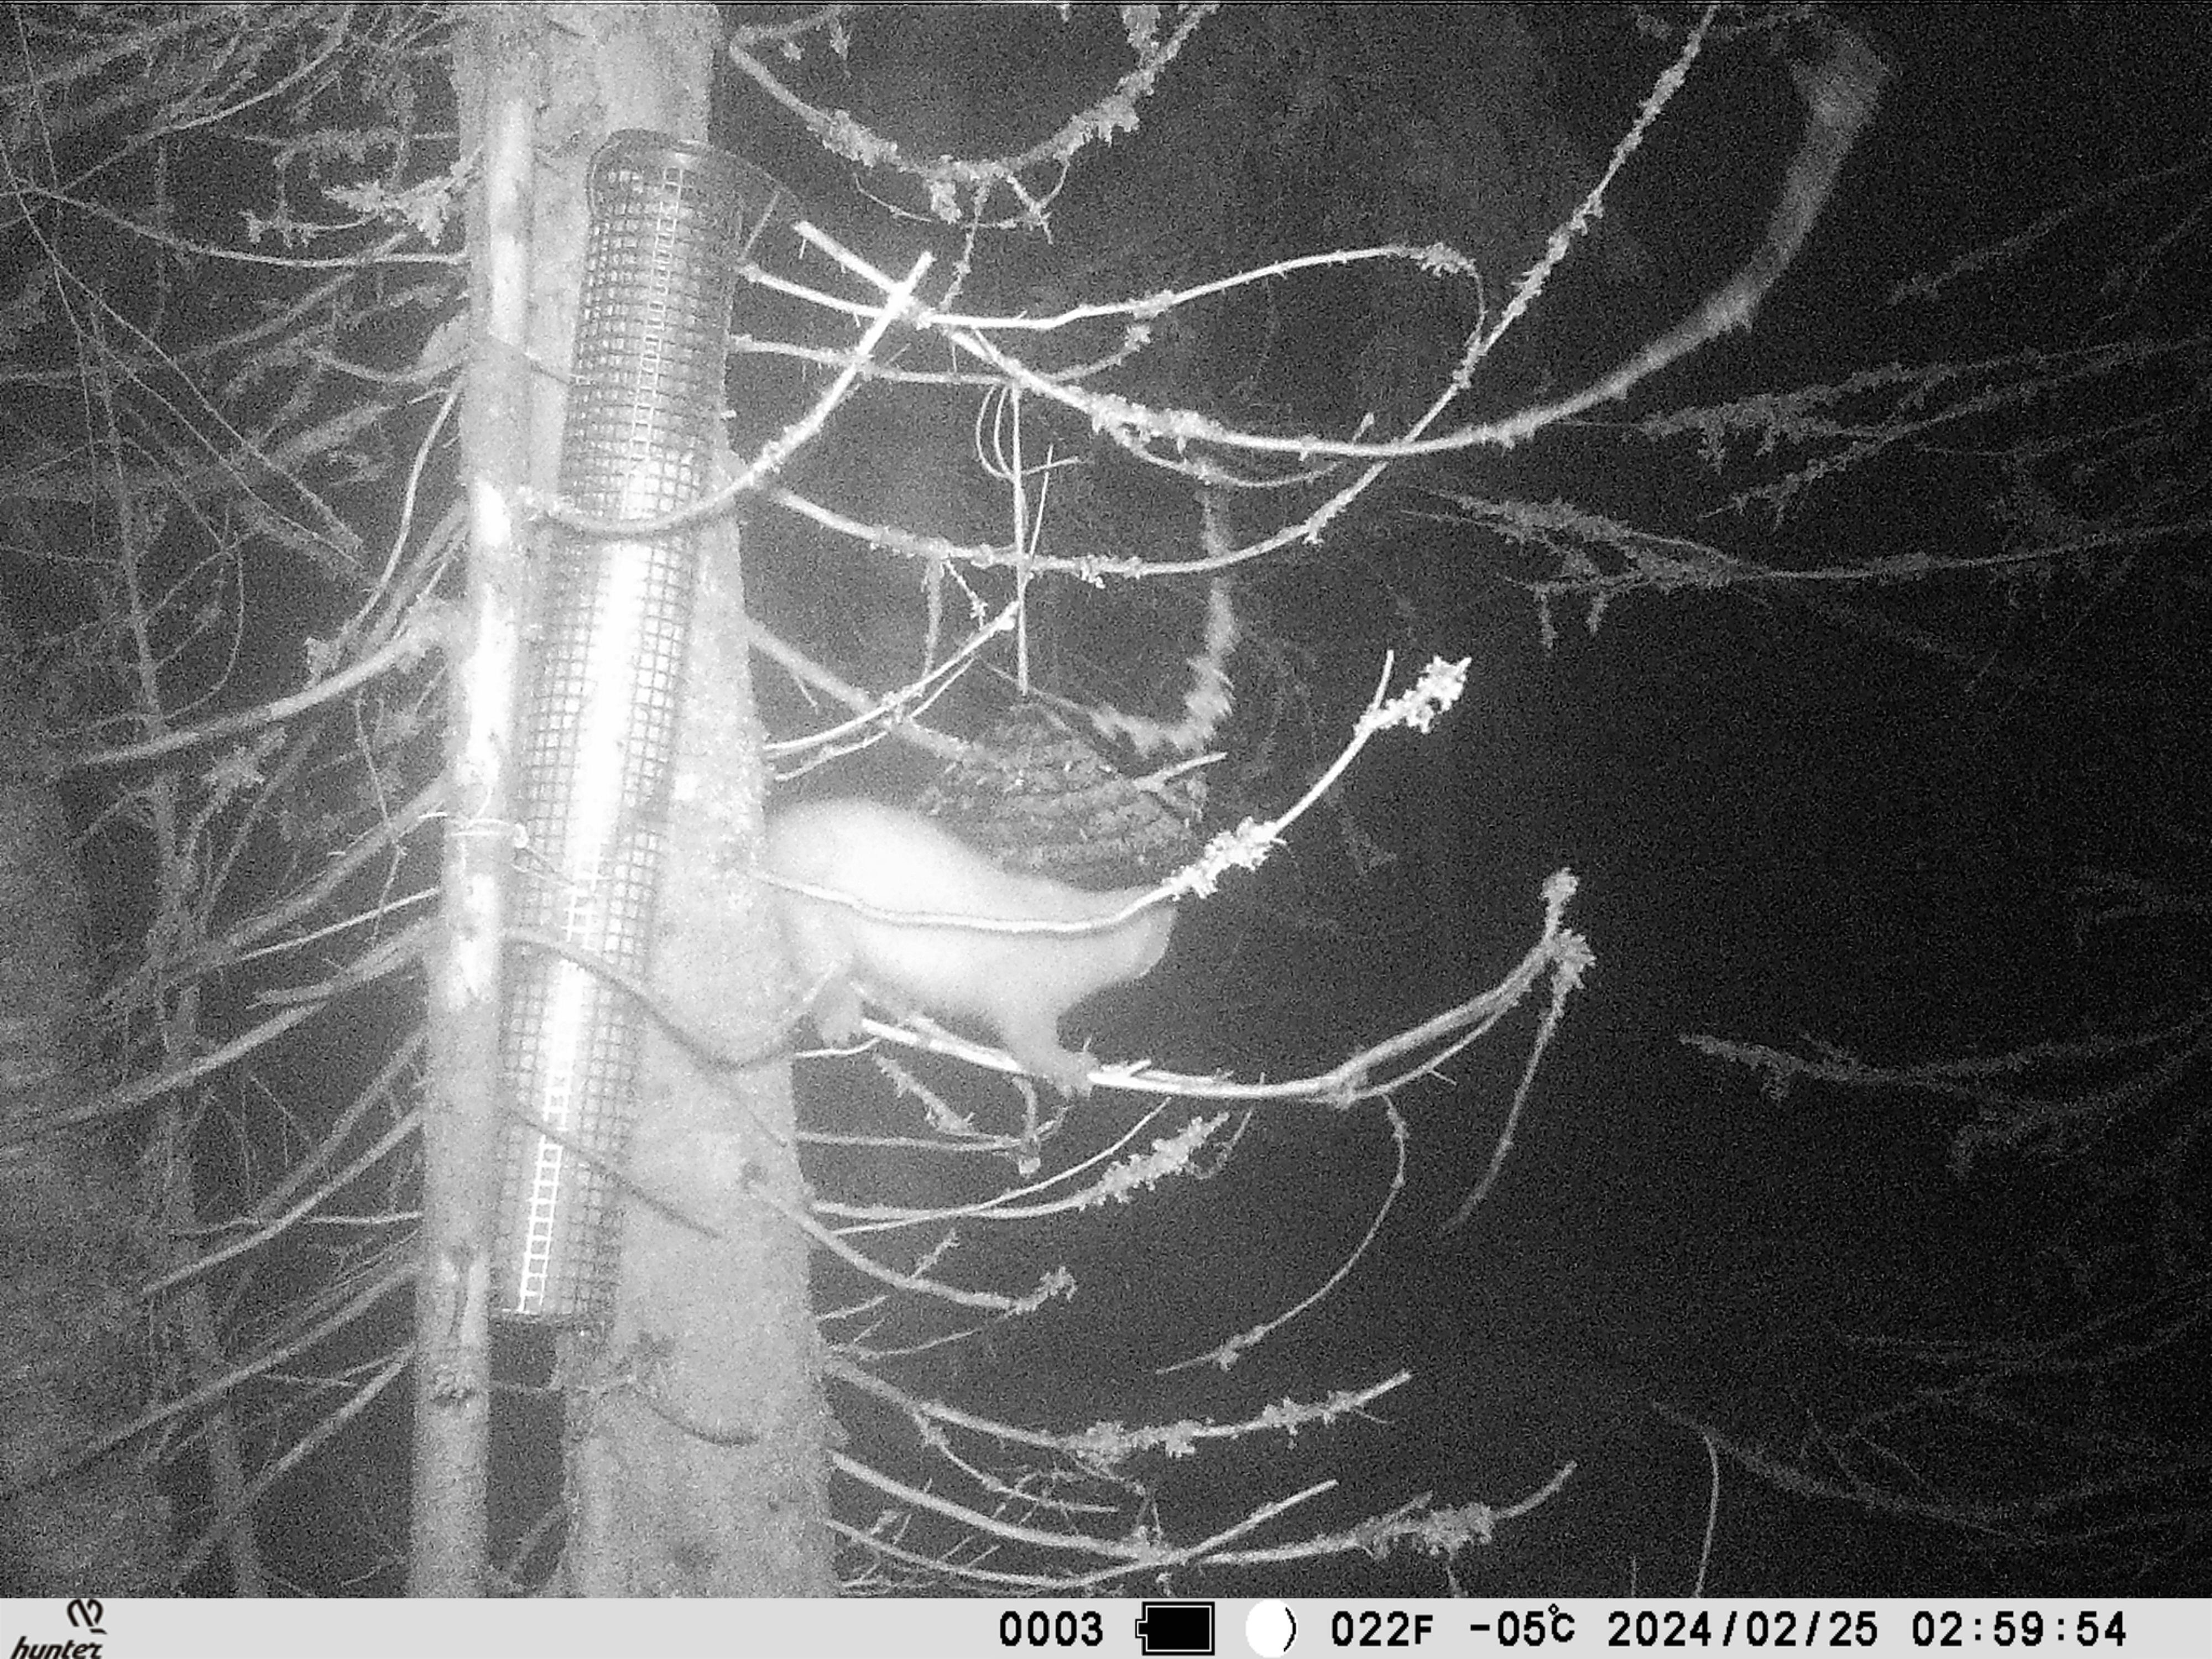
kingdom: Animalia
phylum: Chordata
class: Mammalia
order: Carnivora
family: Mustelidae
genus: Martes
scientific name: Martes martes
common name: European pine marten
